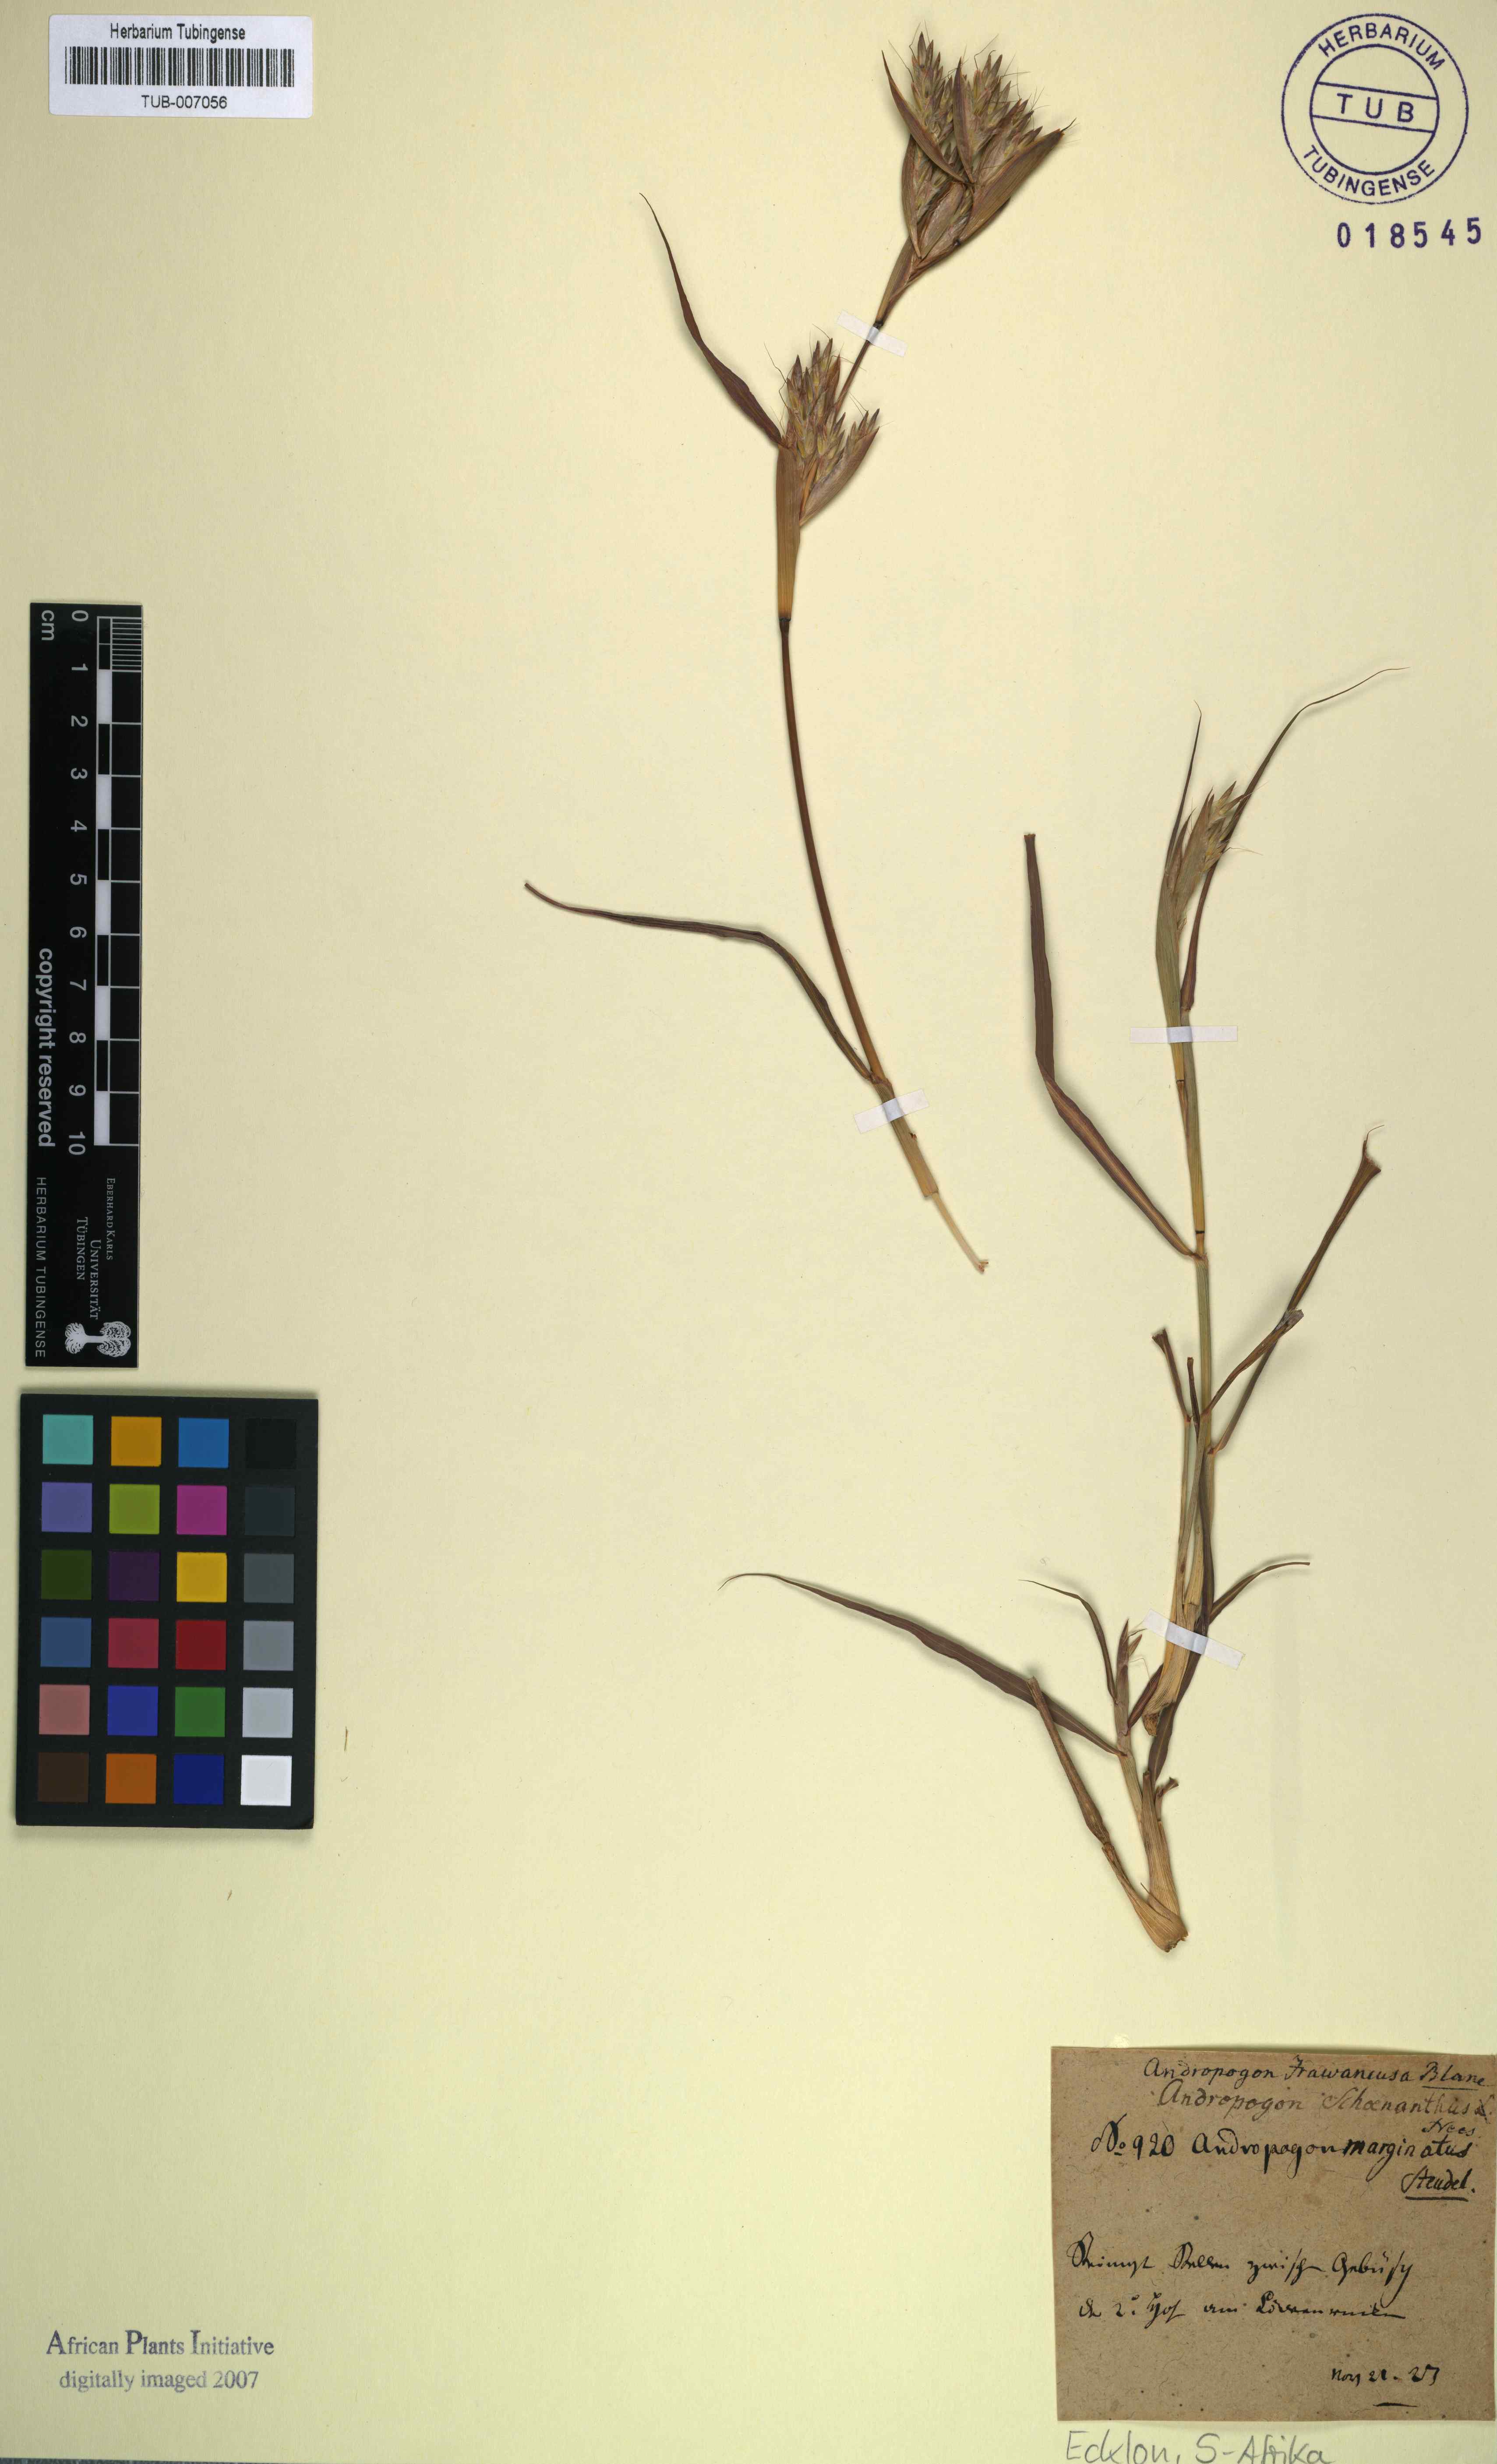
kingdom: Plantae
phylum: Tracheophyta
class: Liliopsida
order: Poales
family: Poaceae
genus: Cymbopogon
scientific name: Cymbopogon nardus
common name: Giant turpentine grass
